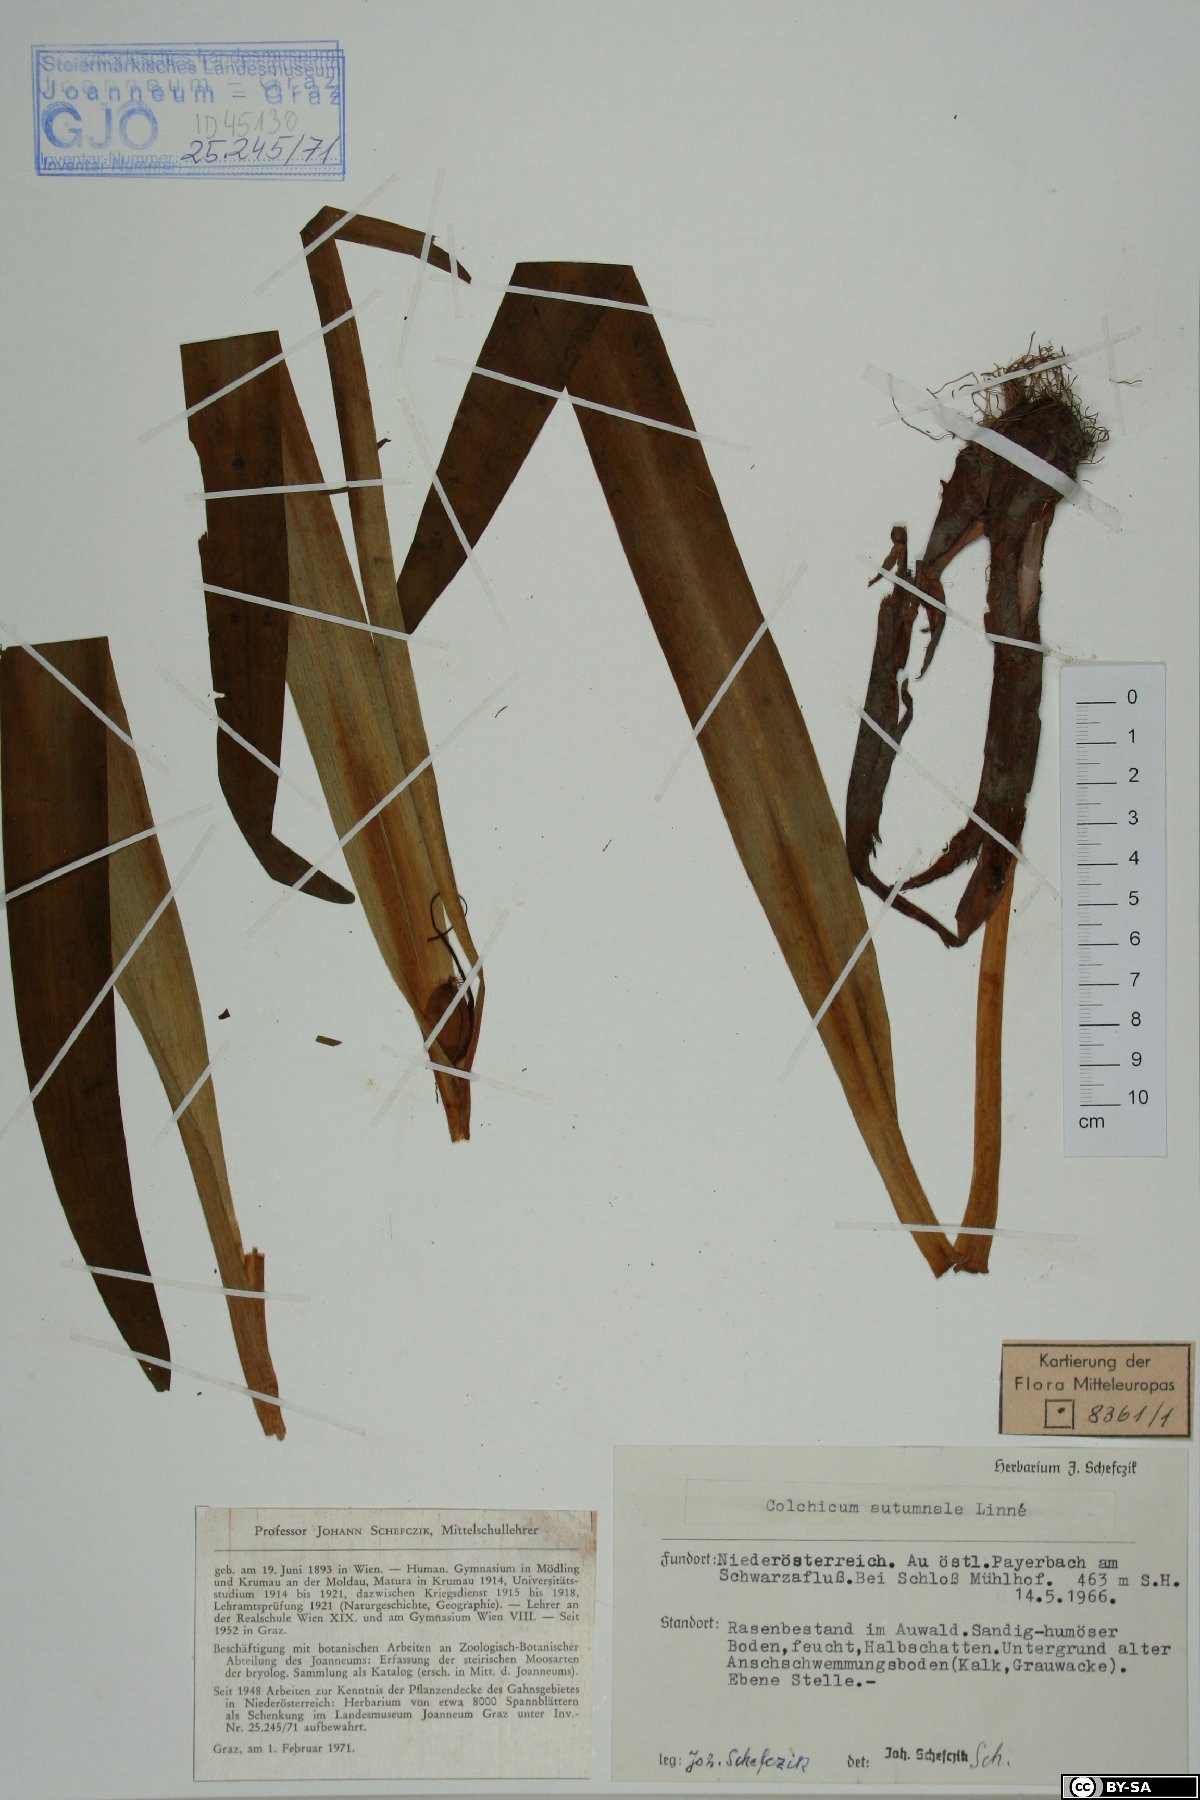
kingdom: Plantae
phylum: Tracheophyta
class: Liliopsida
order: Liliales
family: Colchicaceae
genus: Colchicum
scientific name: Colchicum autumnale
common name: Autumn crocus
